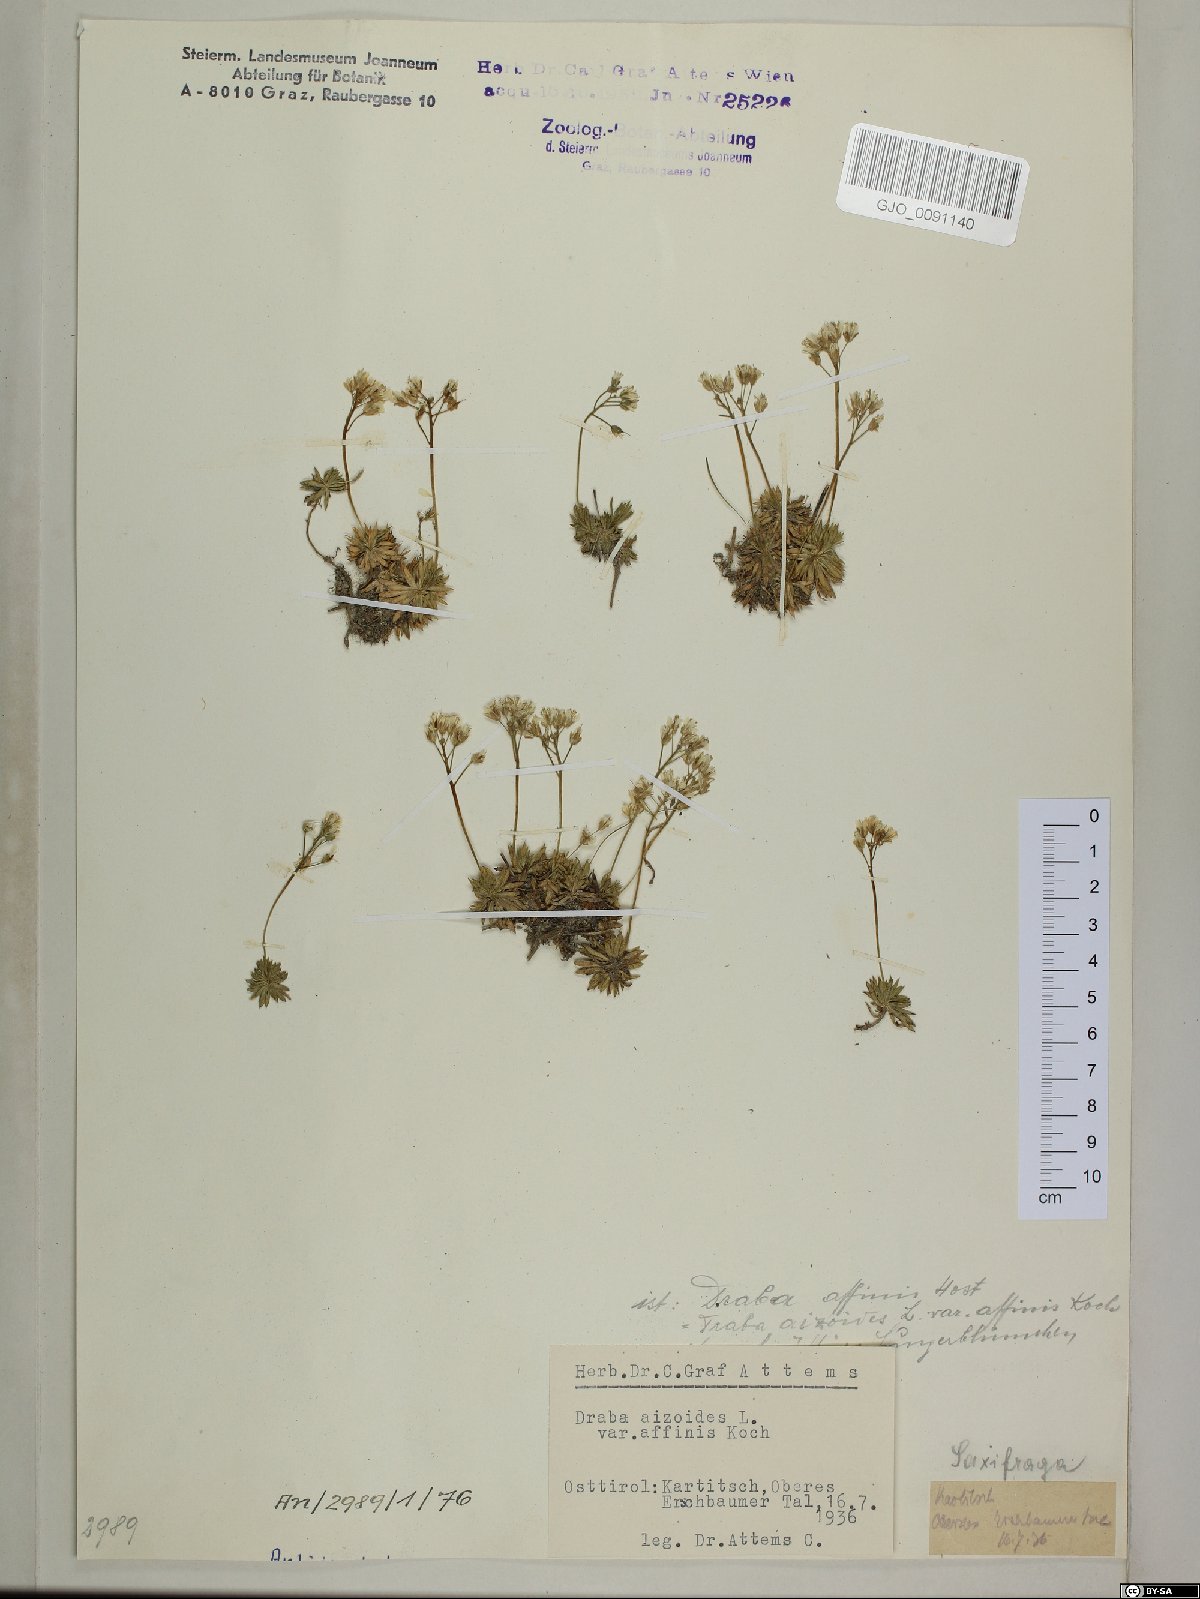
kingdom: Plantae
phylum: Tracheophyta
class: Magnoliopsida
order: Brassicales
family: Brassicaceae
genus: Draba
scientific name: Draba aizoides
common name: Yellow whitlowgrass
